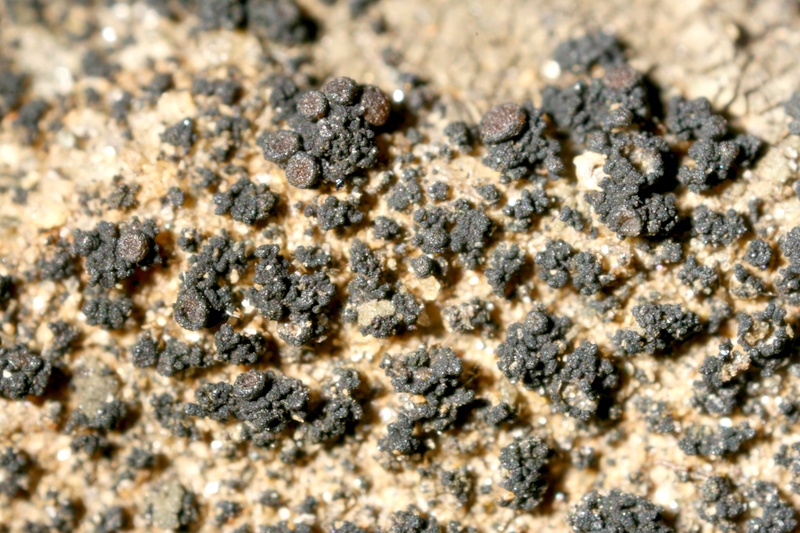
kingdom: Fungi
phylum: Ascomycota
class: Lichinomycetes
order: Lichinales
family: Lichinaceae
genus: Psorotichia
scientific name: Psorotichia hassei
